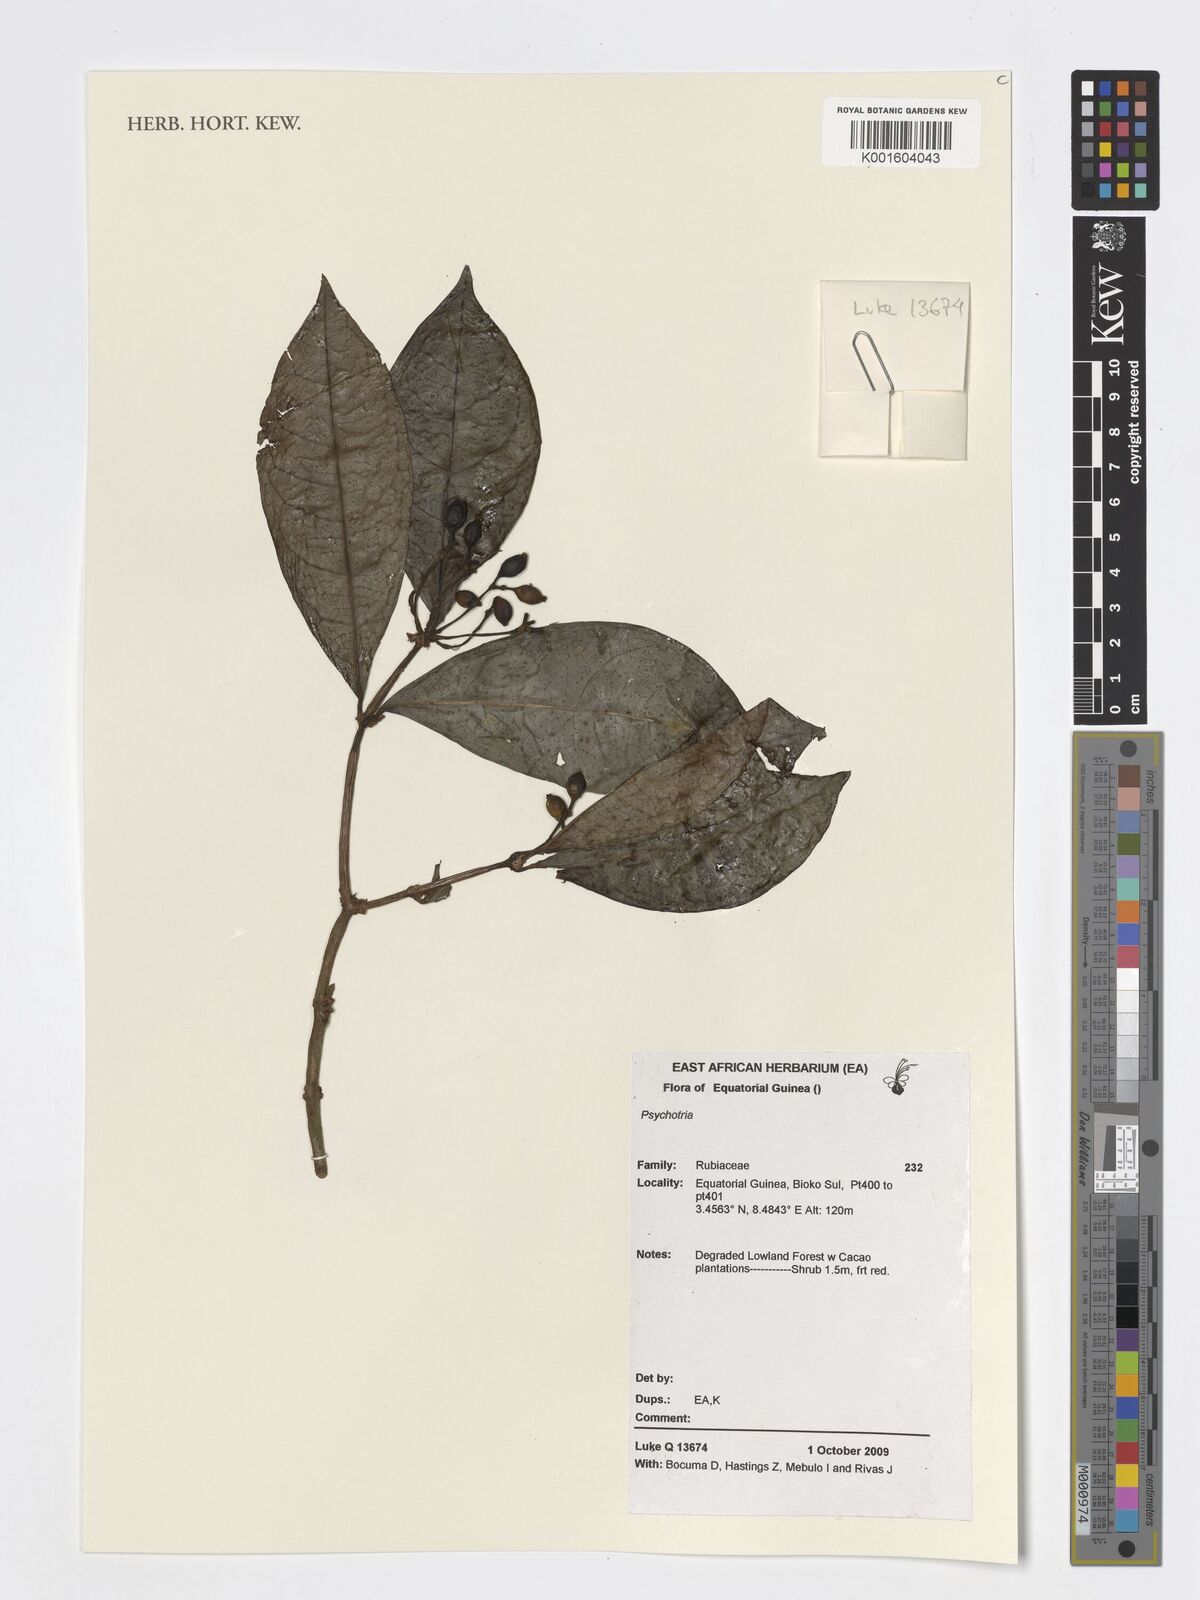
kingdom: Plantae
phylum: Tracheophyta
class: Magnoliopsida
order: Gentianales
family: Rubiaceae
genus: Psychotria
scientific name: Psychotria
